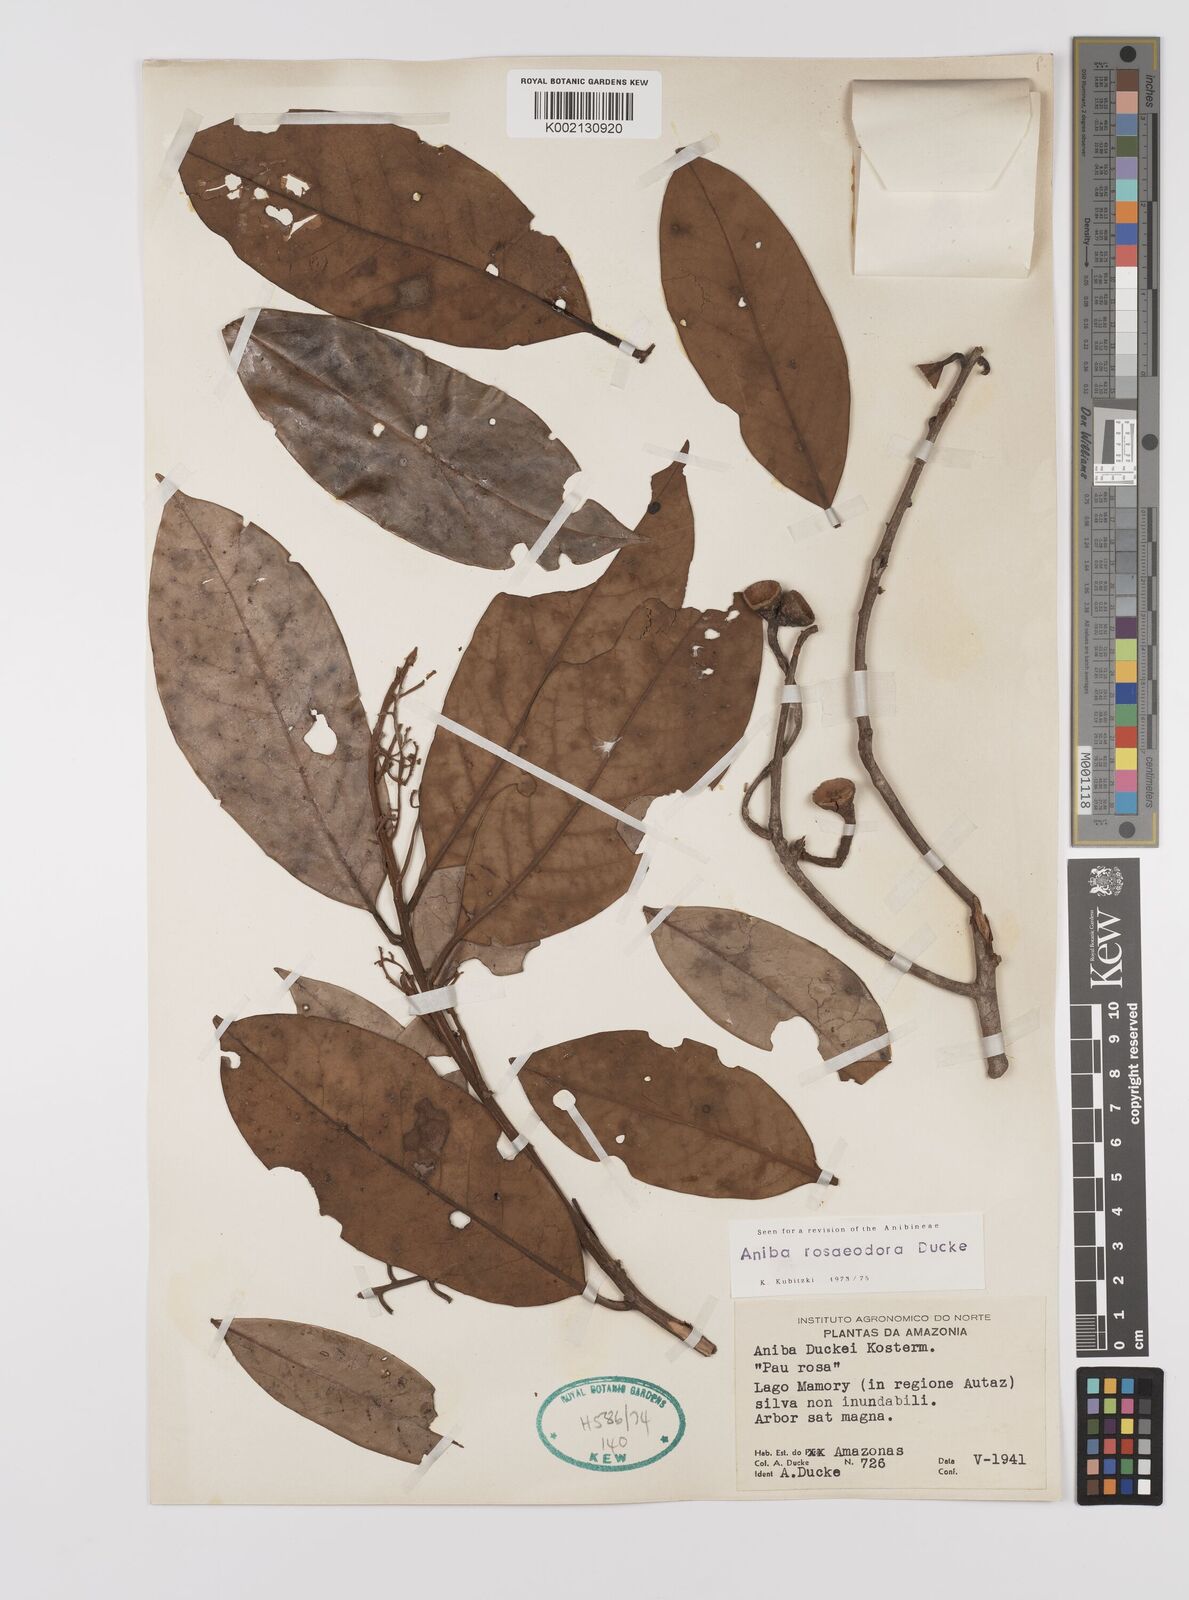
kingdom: Plantae
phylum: Tracheophyta
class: Magnoliopsida
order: Laurales
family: Lauraceae
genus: Aniba
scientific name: Aniba rosodora
